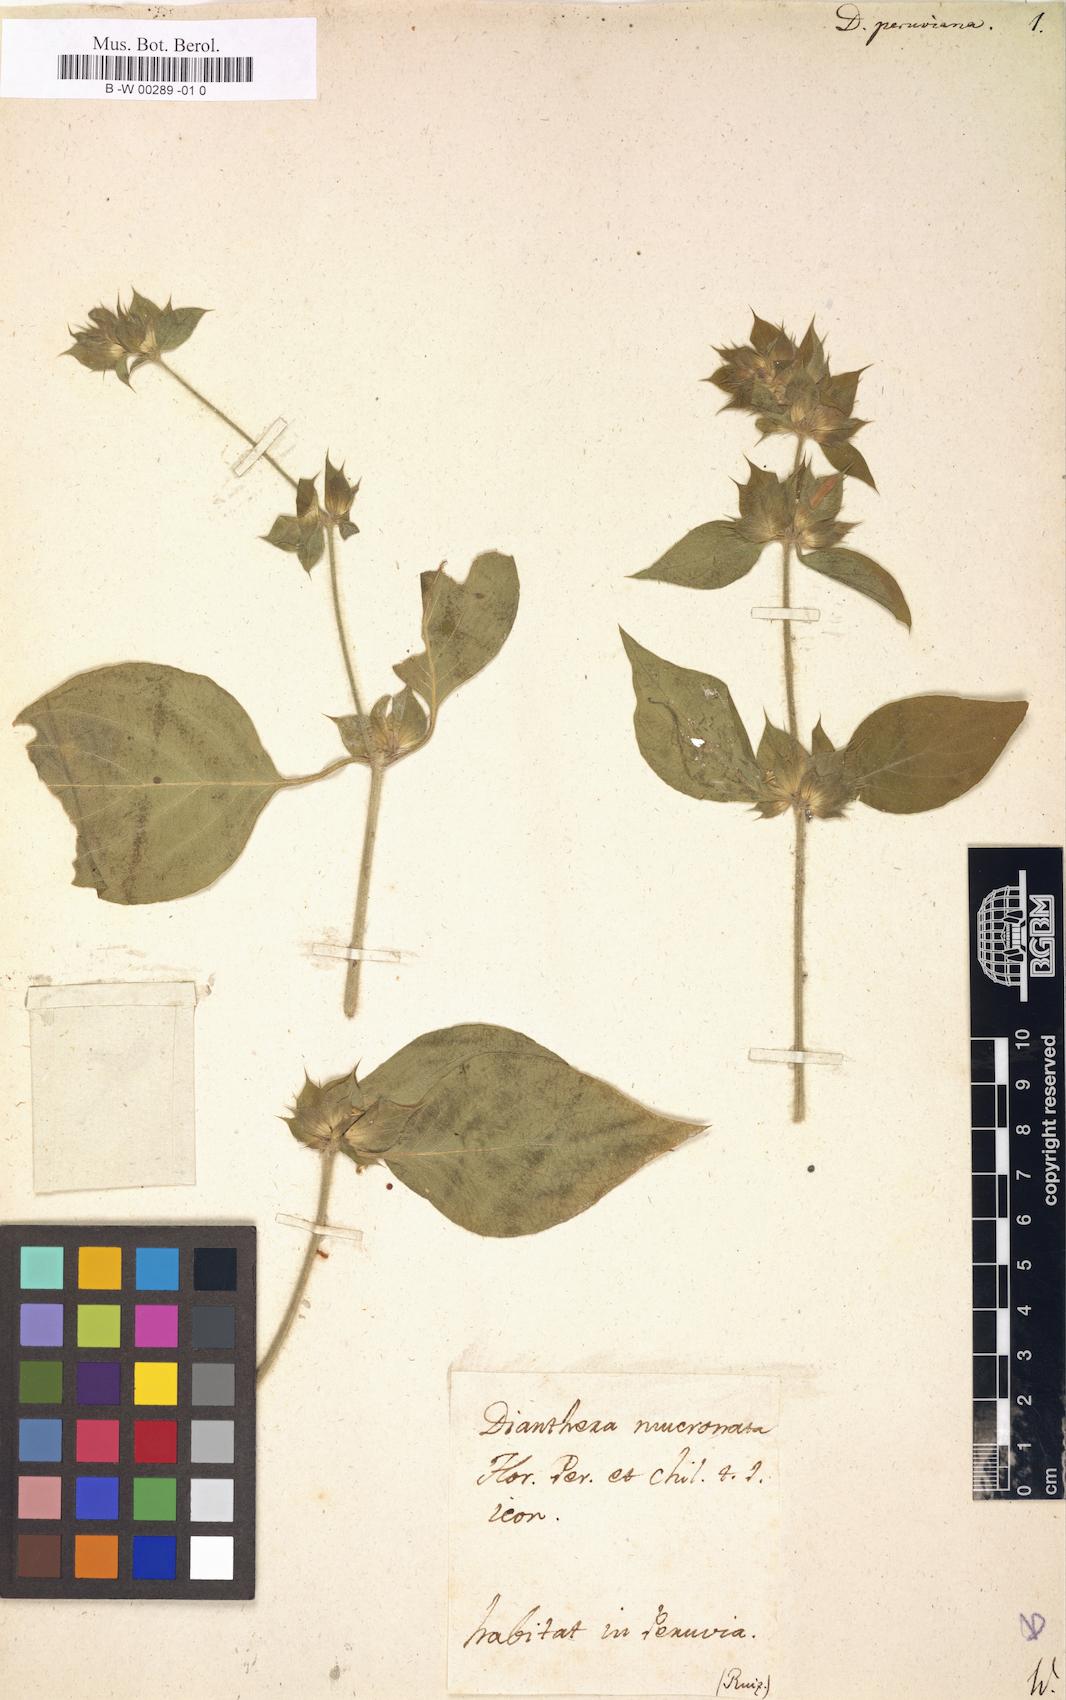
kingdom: Plantae
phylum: Tracheophyta
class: Magnoliopsida
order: Lamiales
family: Acanthaceae
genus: Dicliptera
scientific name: Dicliptera peruviana
